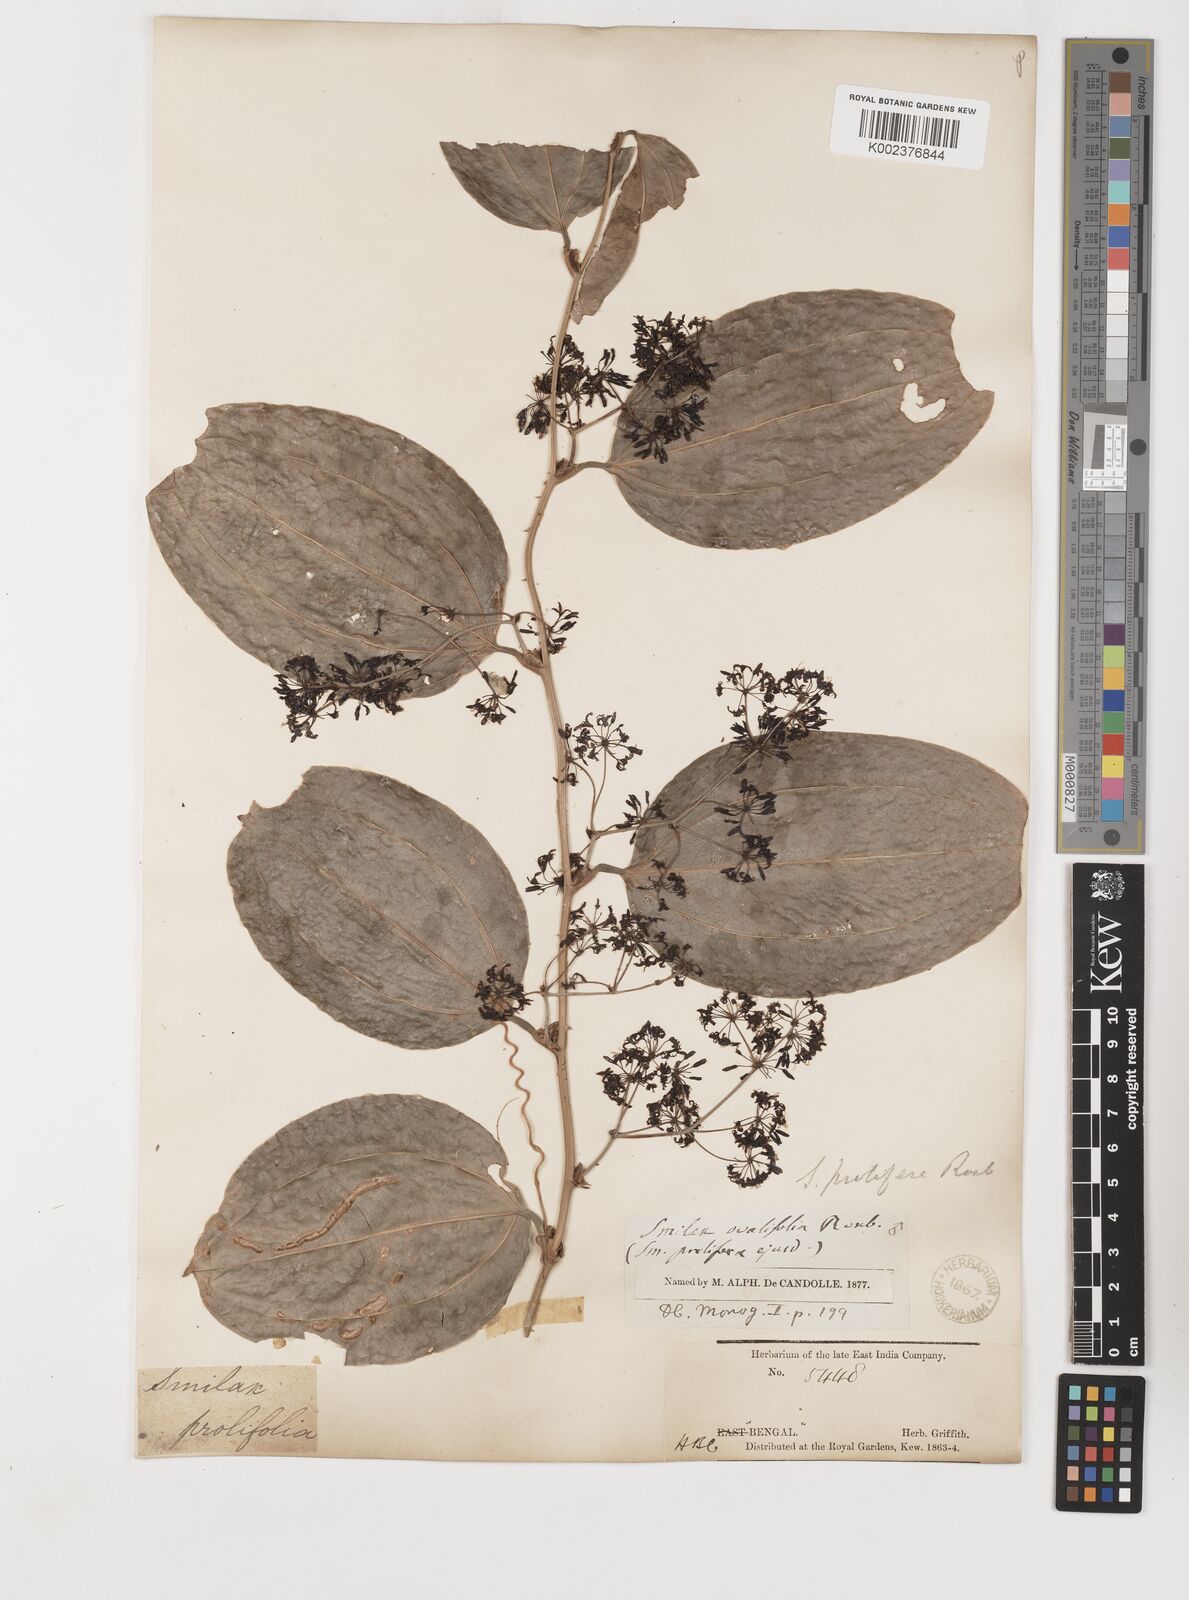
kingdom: Plantae
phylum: Tracheophyta
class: Liliopsida
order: Liliales
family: Smilacaceae
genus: Smilax
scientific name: Smilax prolifera
